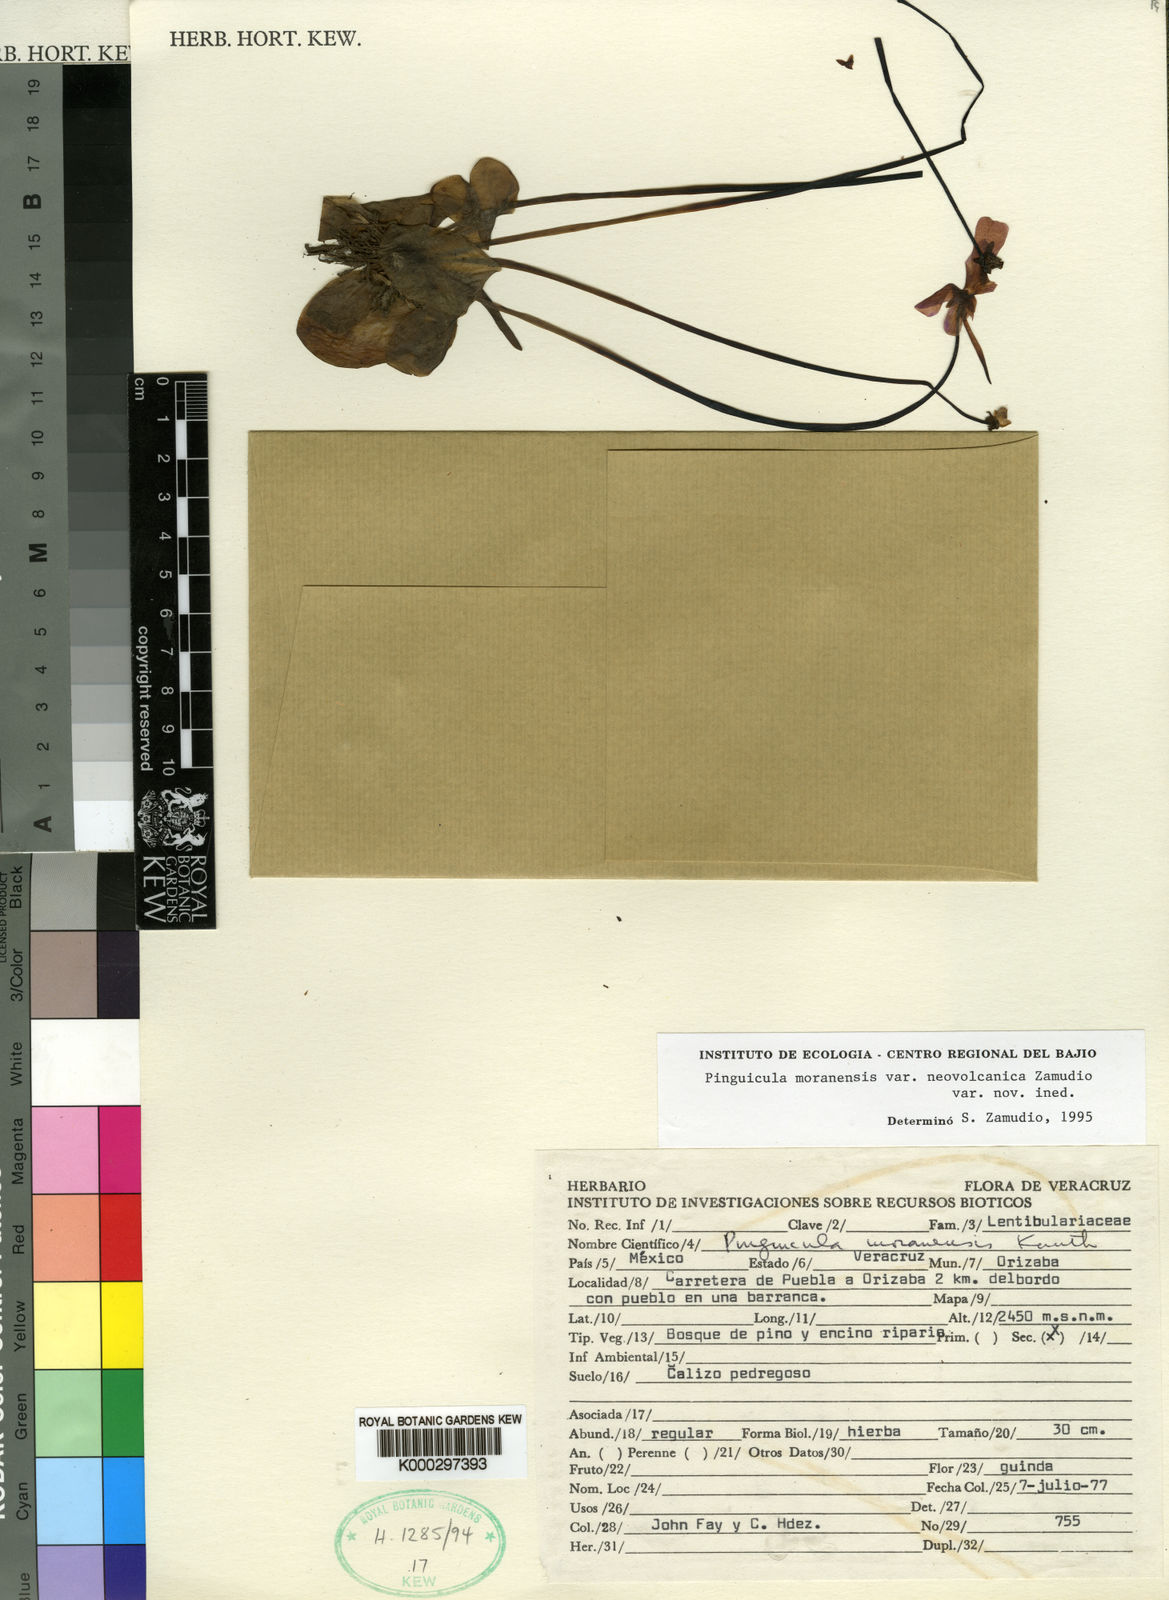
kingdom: Plantae
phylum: Tracheophyta
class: Magnoliopsida
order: Lamiales
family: Lentibulariaceae
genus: Pinguicula
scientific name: Pinguicula moranensis
